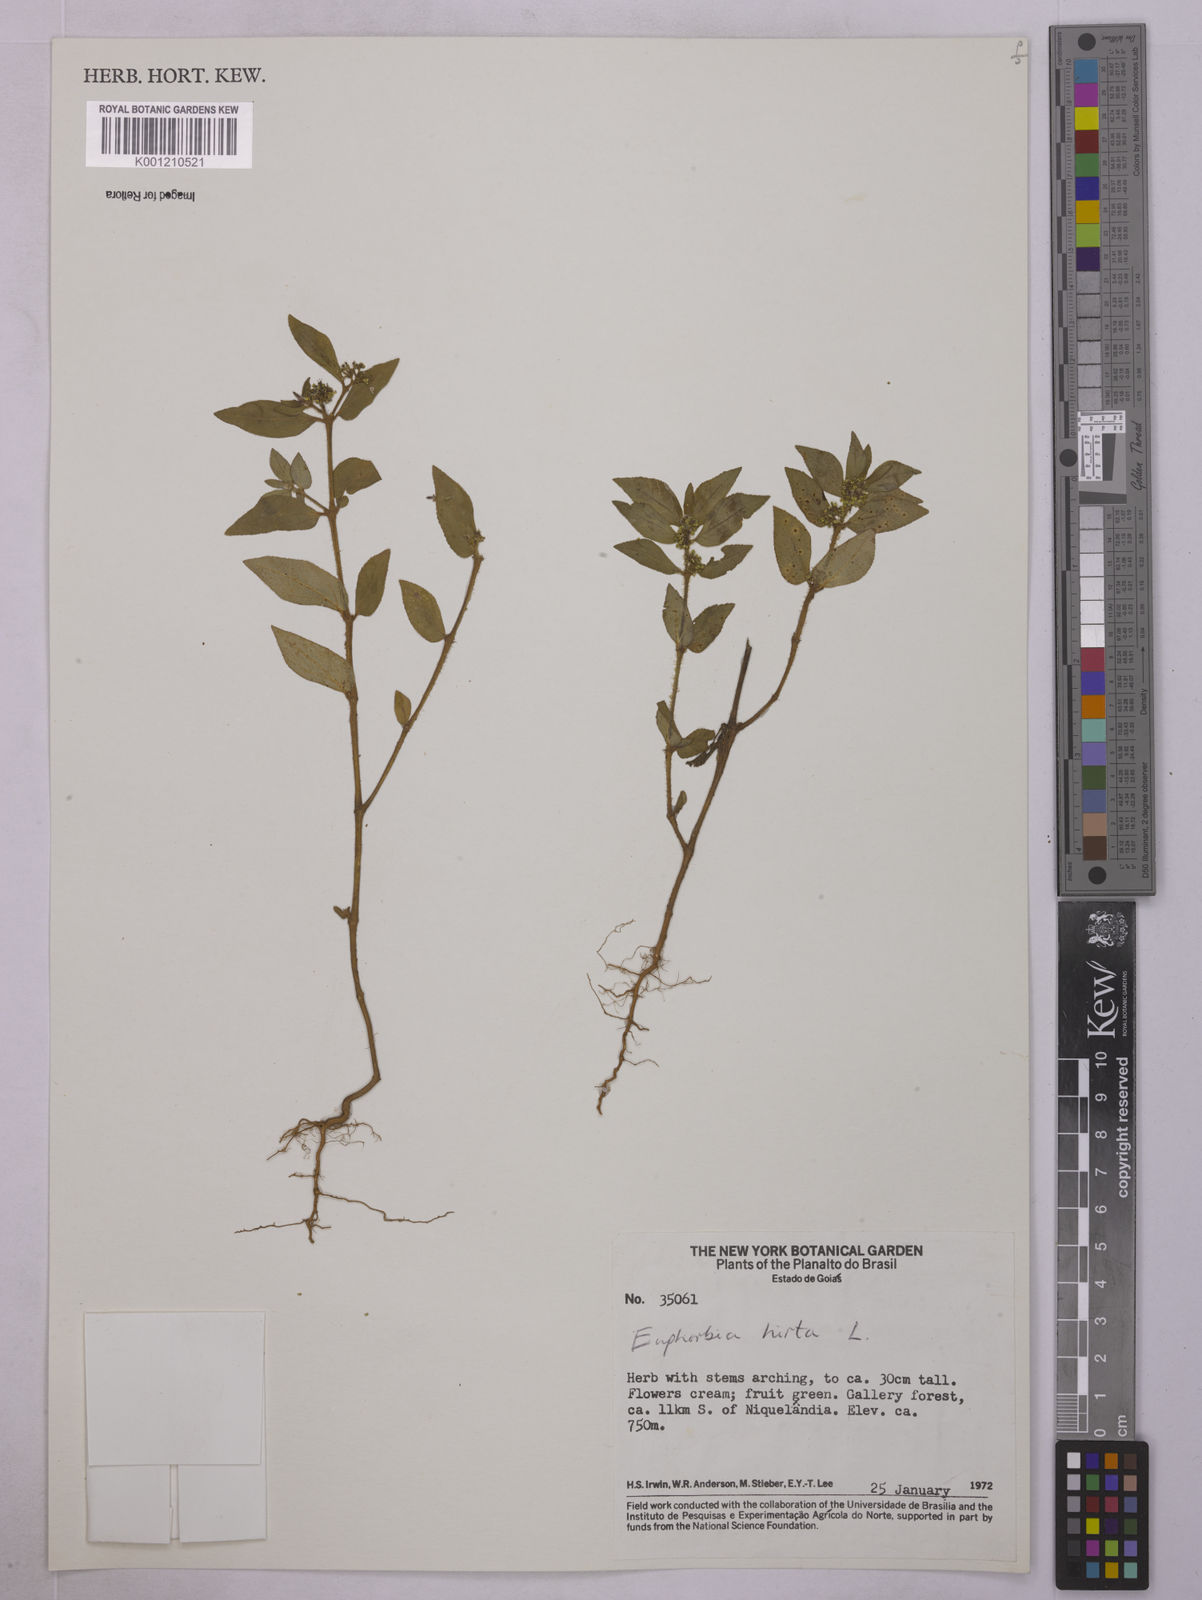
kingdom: Plantae
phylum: Tracheophyta
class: Magnoliopsida
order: Malpighiales
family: Euphorbiaceae
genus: Euphorbia
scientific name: Euphorbia hirta
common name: Pillpod sandmat
